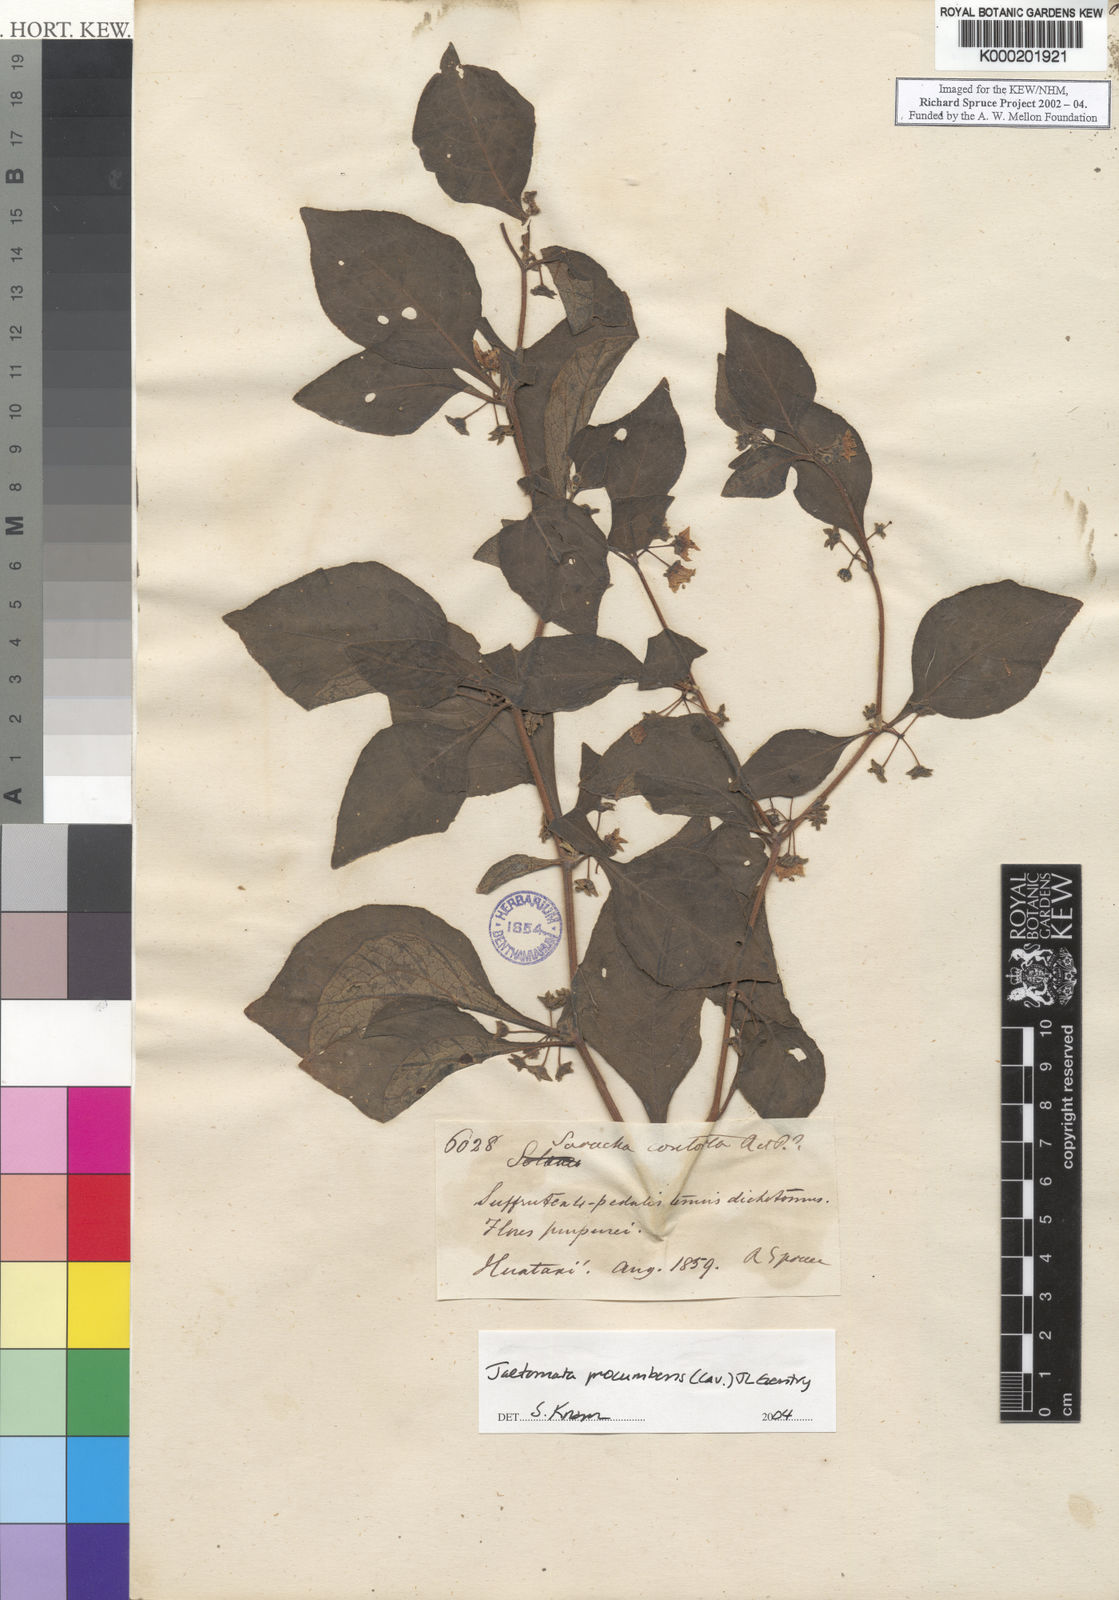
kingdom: Plantae
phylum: Tracheophyta
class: Magnoliopsida
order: Solanales
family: Solanaceae
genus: Jaltomata
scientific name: Jaltomata procumbens
